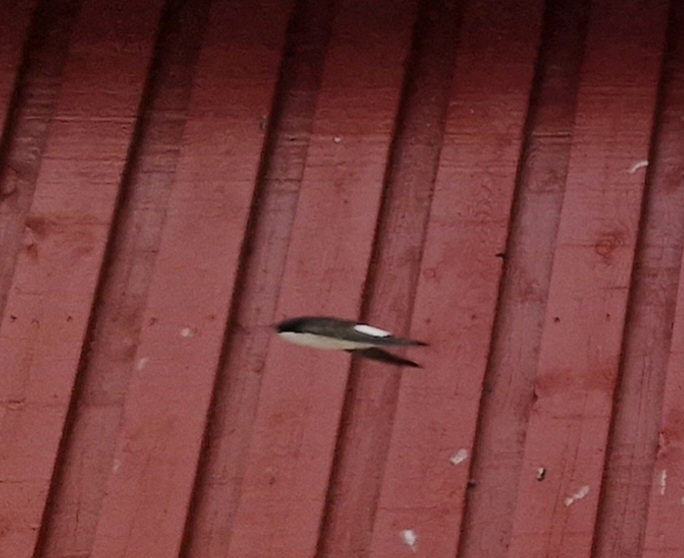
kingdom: Animalia
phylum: Chordata
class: Aves
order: Passeriformes
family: Hirundinidae
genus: Delichon
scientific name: Delichon urbicum
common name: Bysvale
